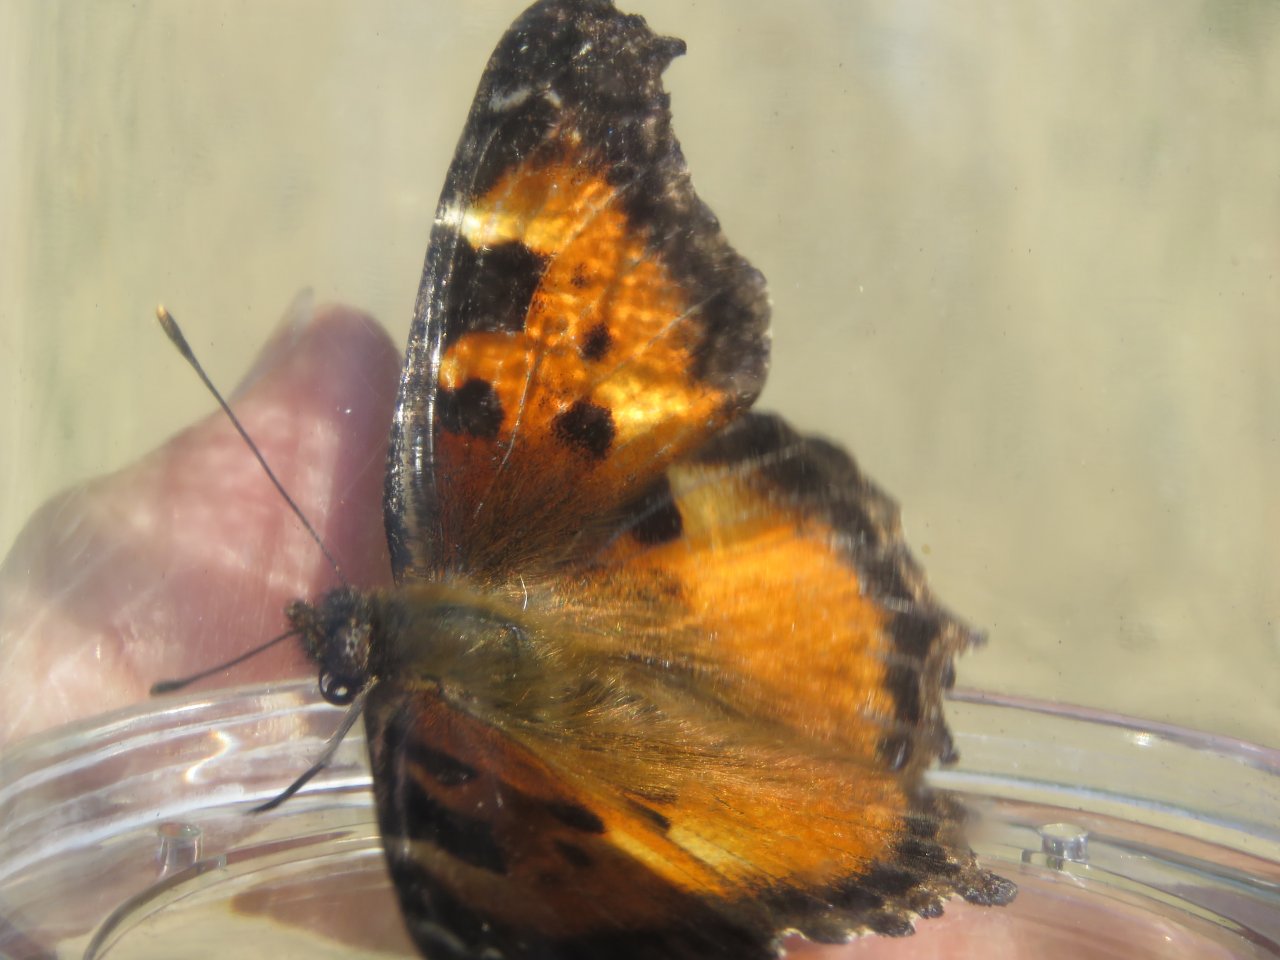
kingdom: Animalia
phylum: Arthropoda
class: Insecta
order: Lepidoptera
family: Nymphalidae
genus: Nymphalis
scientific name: Nymphalis californica
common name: California Tortoiseshell
